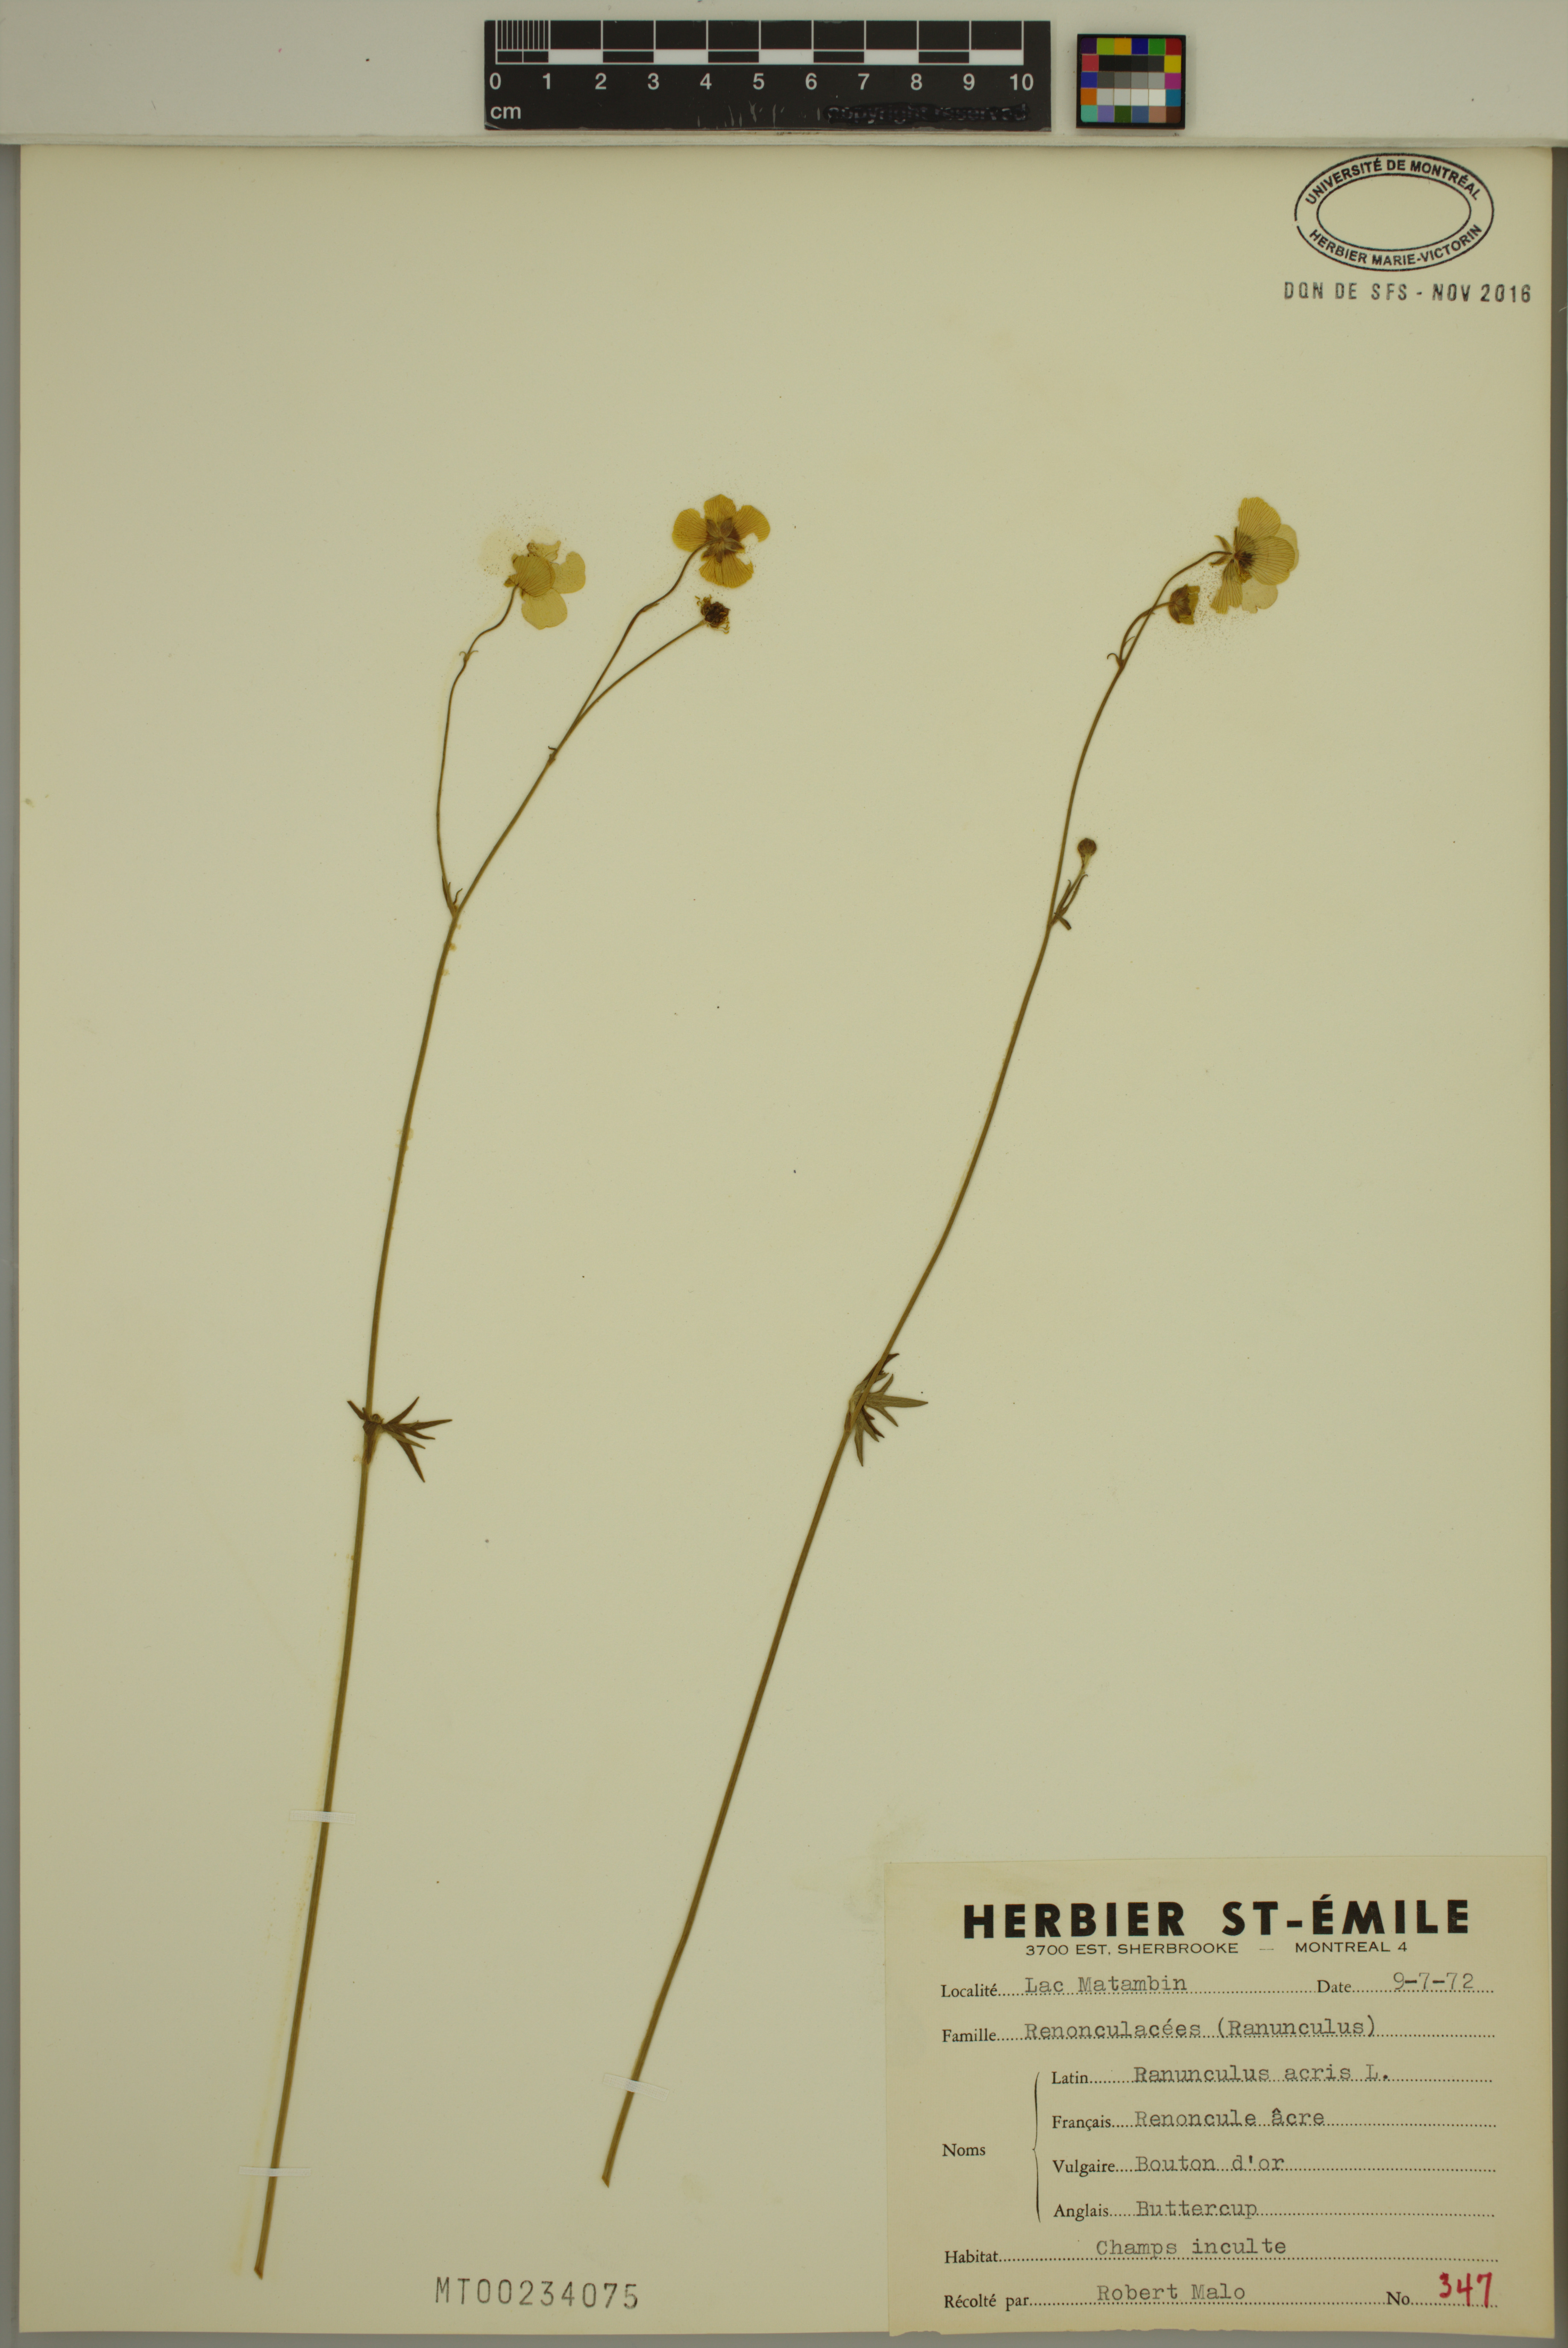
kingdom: Plantae
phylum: Tracheophyta
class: Magnoliopsida
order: Ranunculales
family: Ranunculaceae
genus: Ranunculus
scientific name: Ranunculus acris
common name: Meadow buttercup
